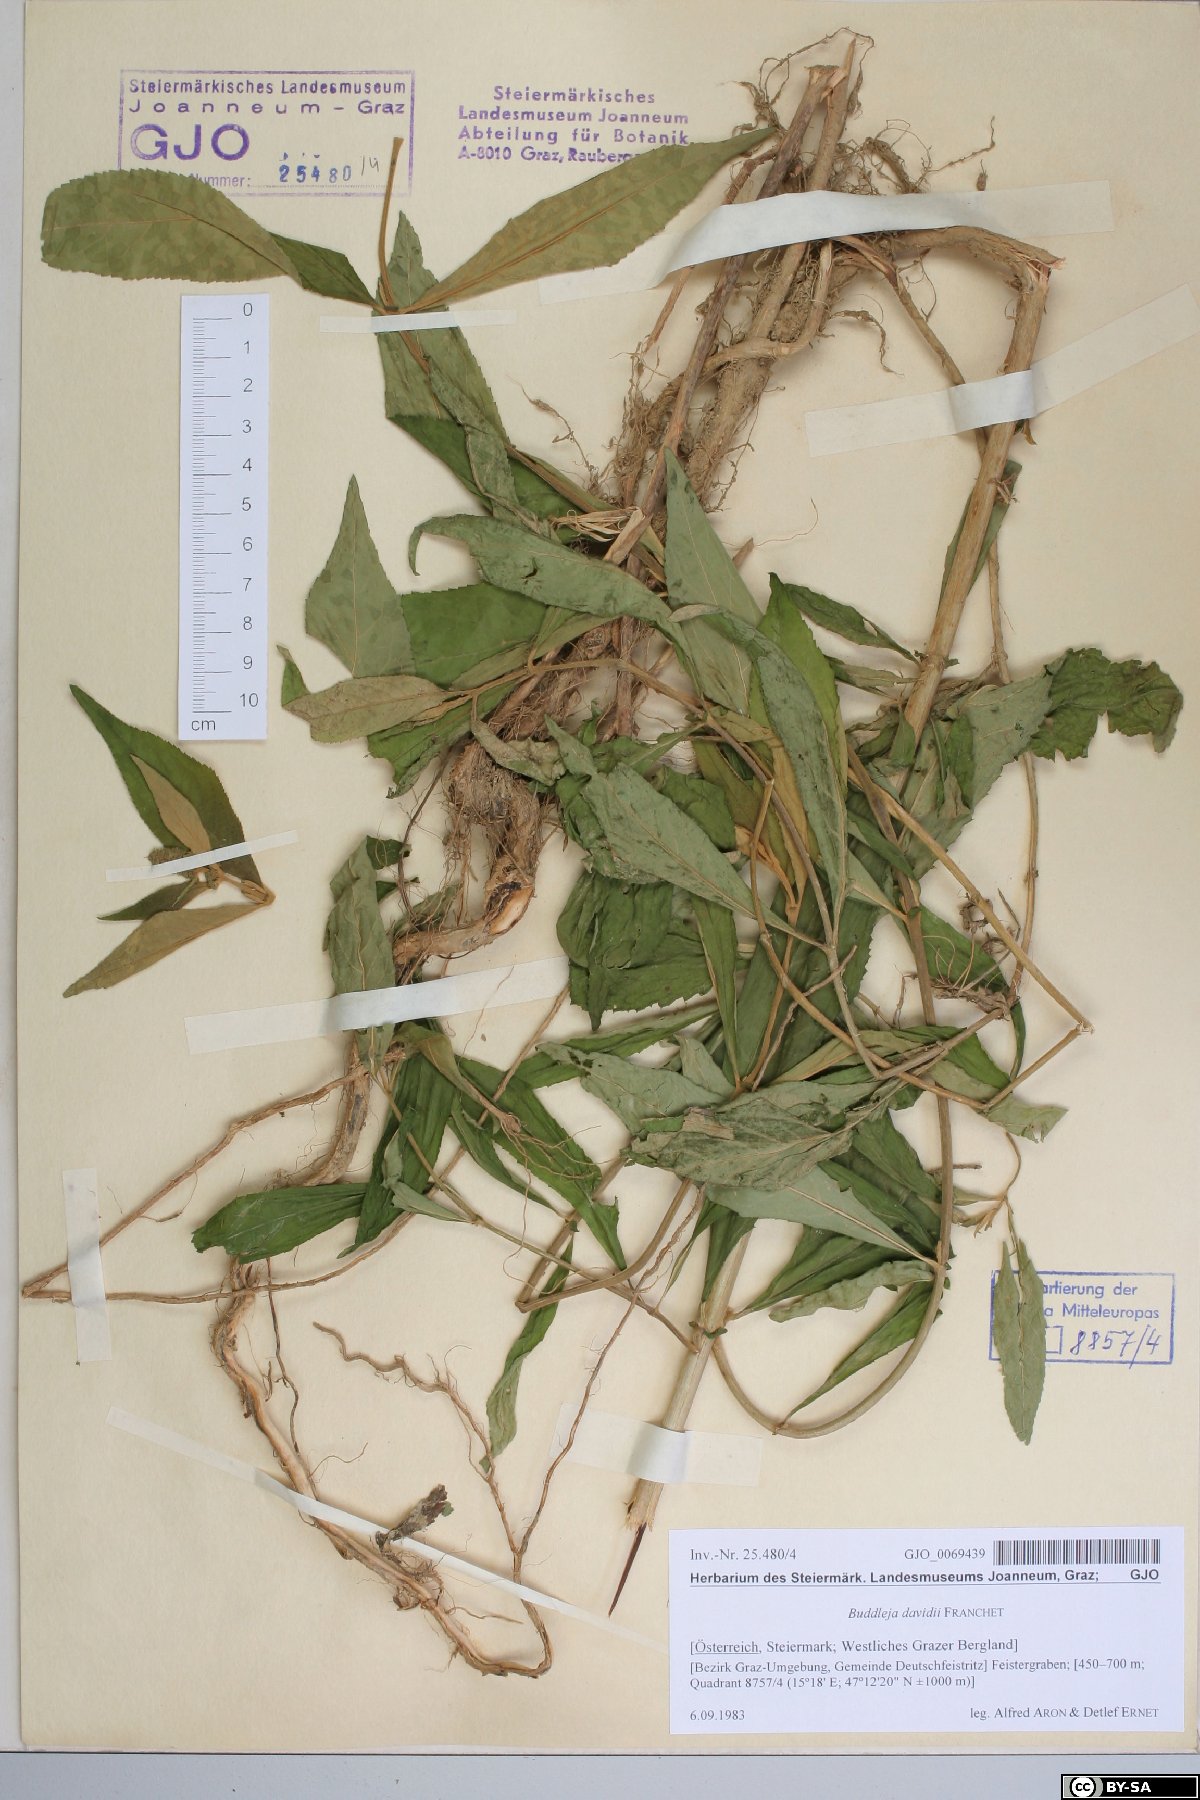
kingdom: Plantae
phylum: Tracheophyta
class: Magnoliopsida
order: Lamiales
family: Scrophulariaceae
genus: Buddleja
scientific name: Buddleja davidii
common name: Butterfly-bush
